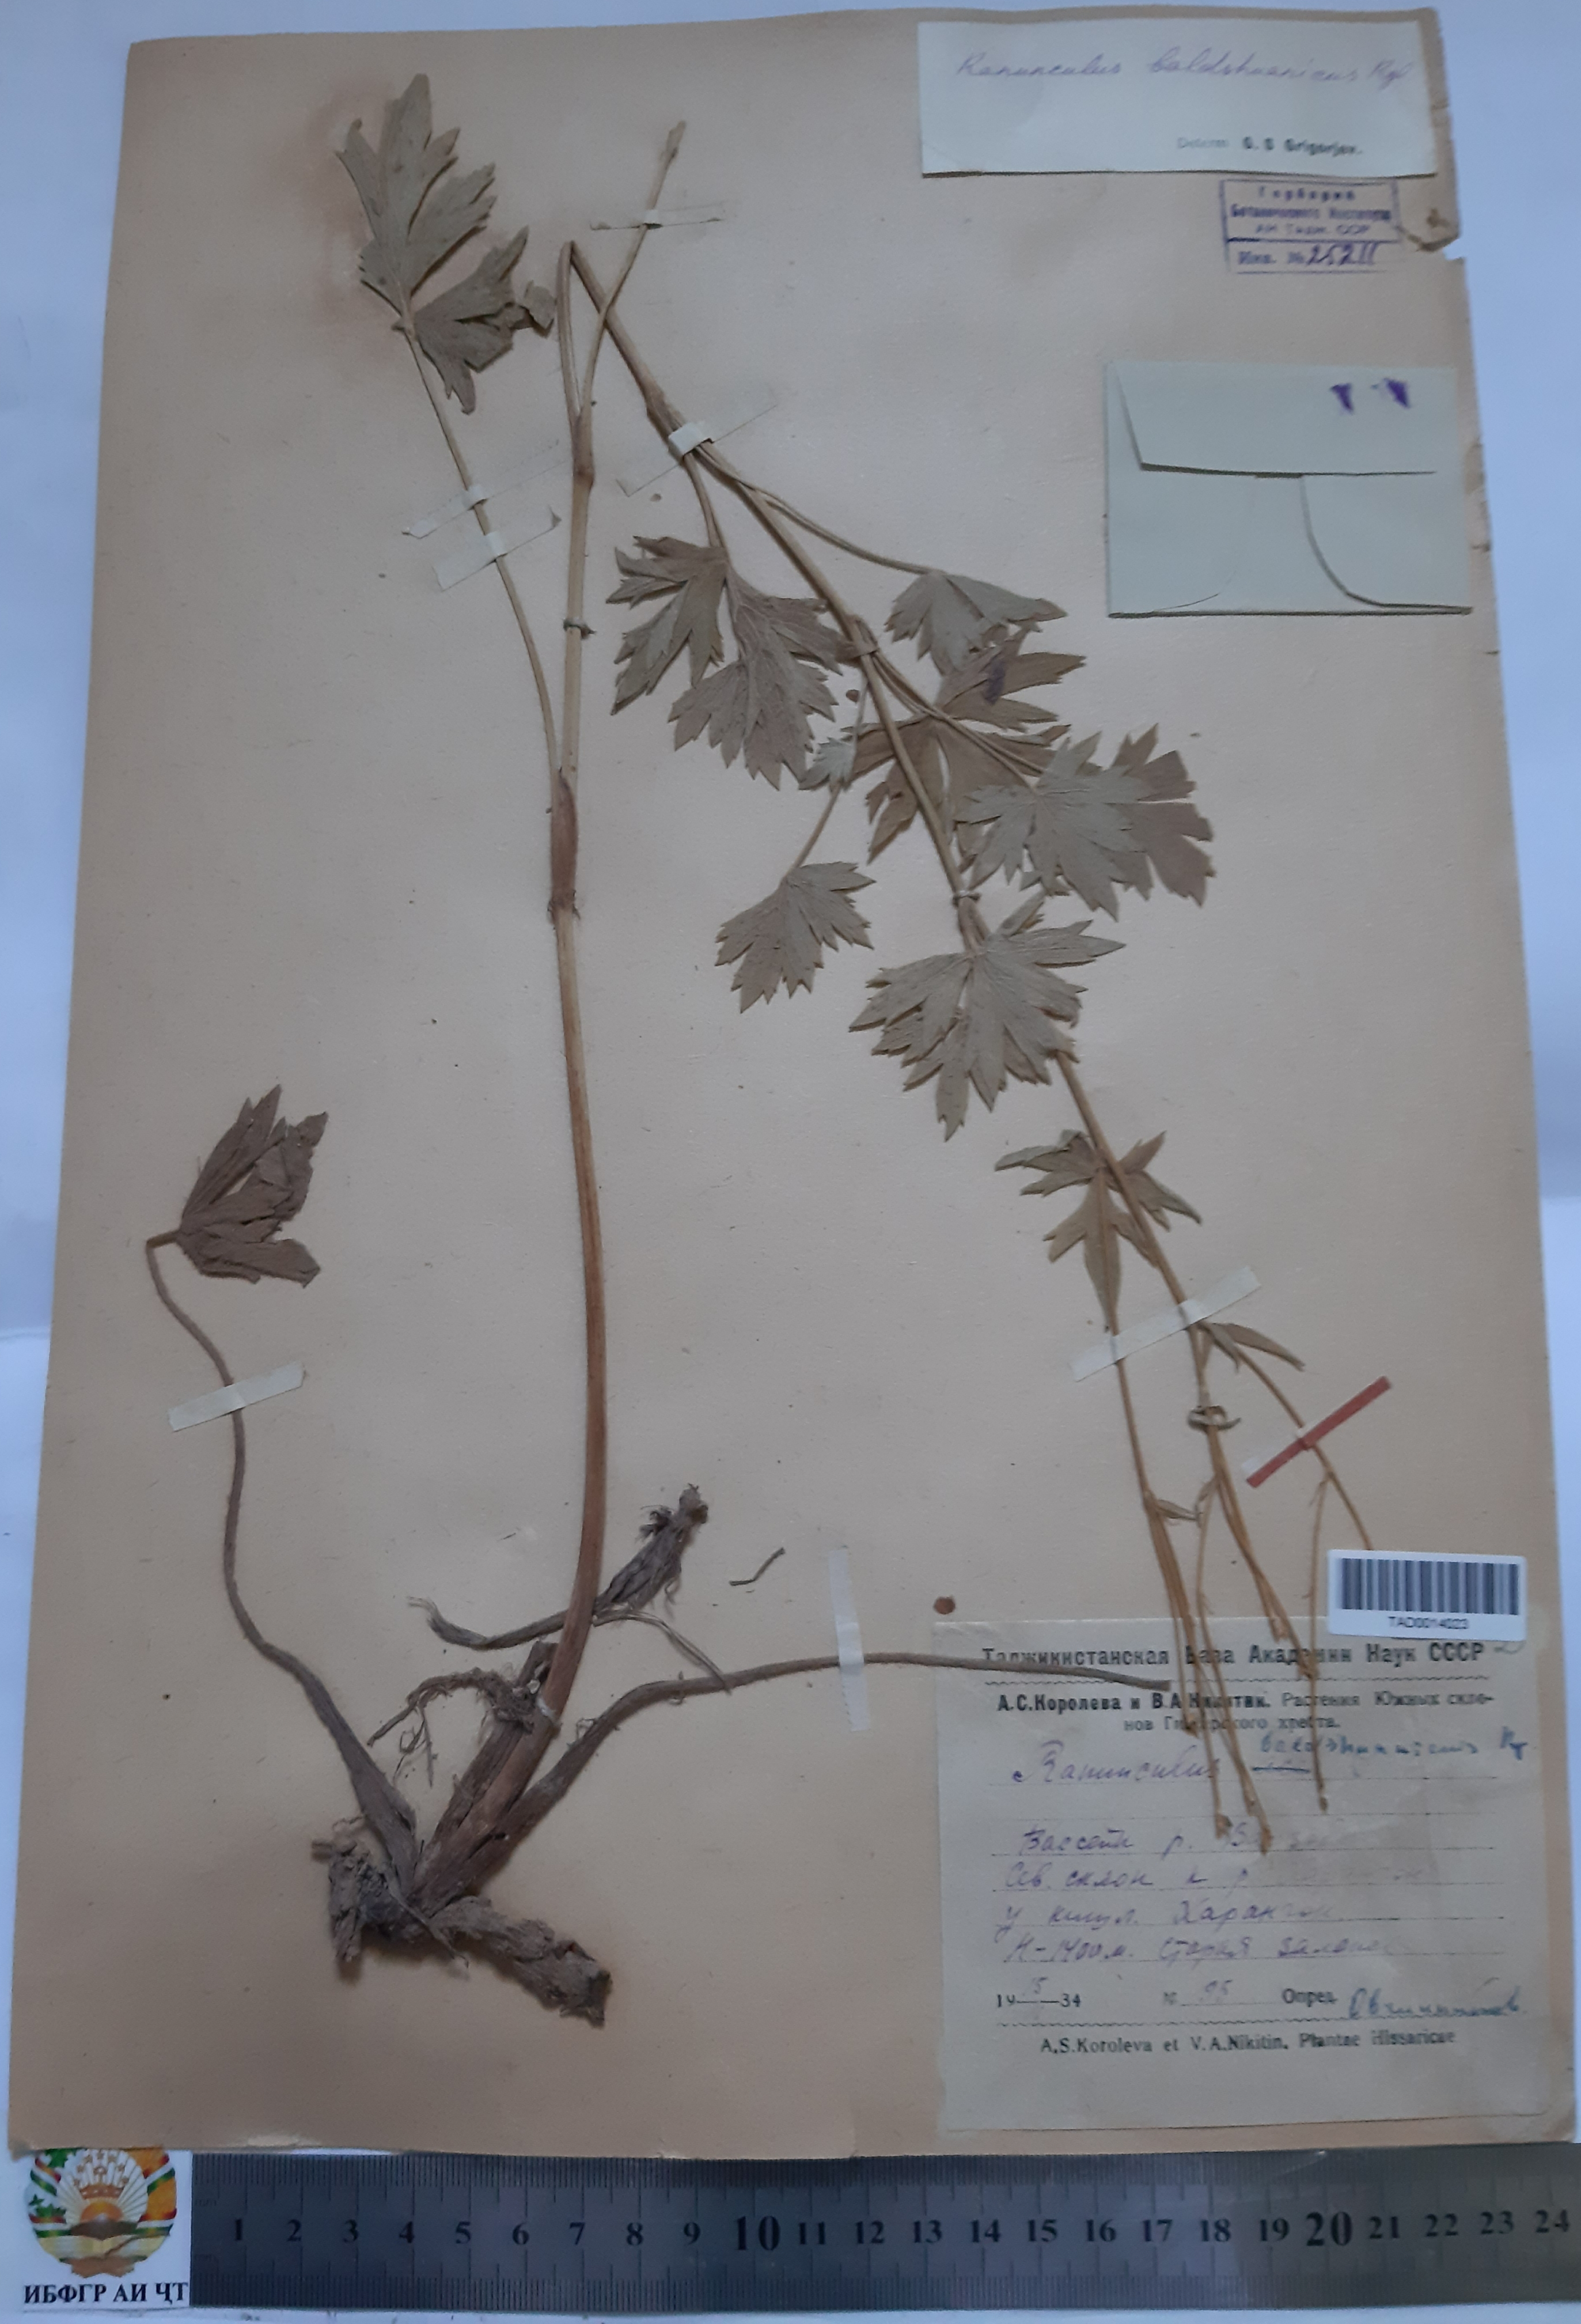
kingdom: Plantae
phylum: Tracheophyta
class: Magnoliopsida
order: Ranunculales
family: Ranunculaceae
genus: Ranunculus
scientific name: Ranunculus baldshuanicus
